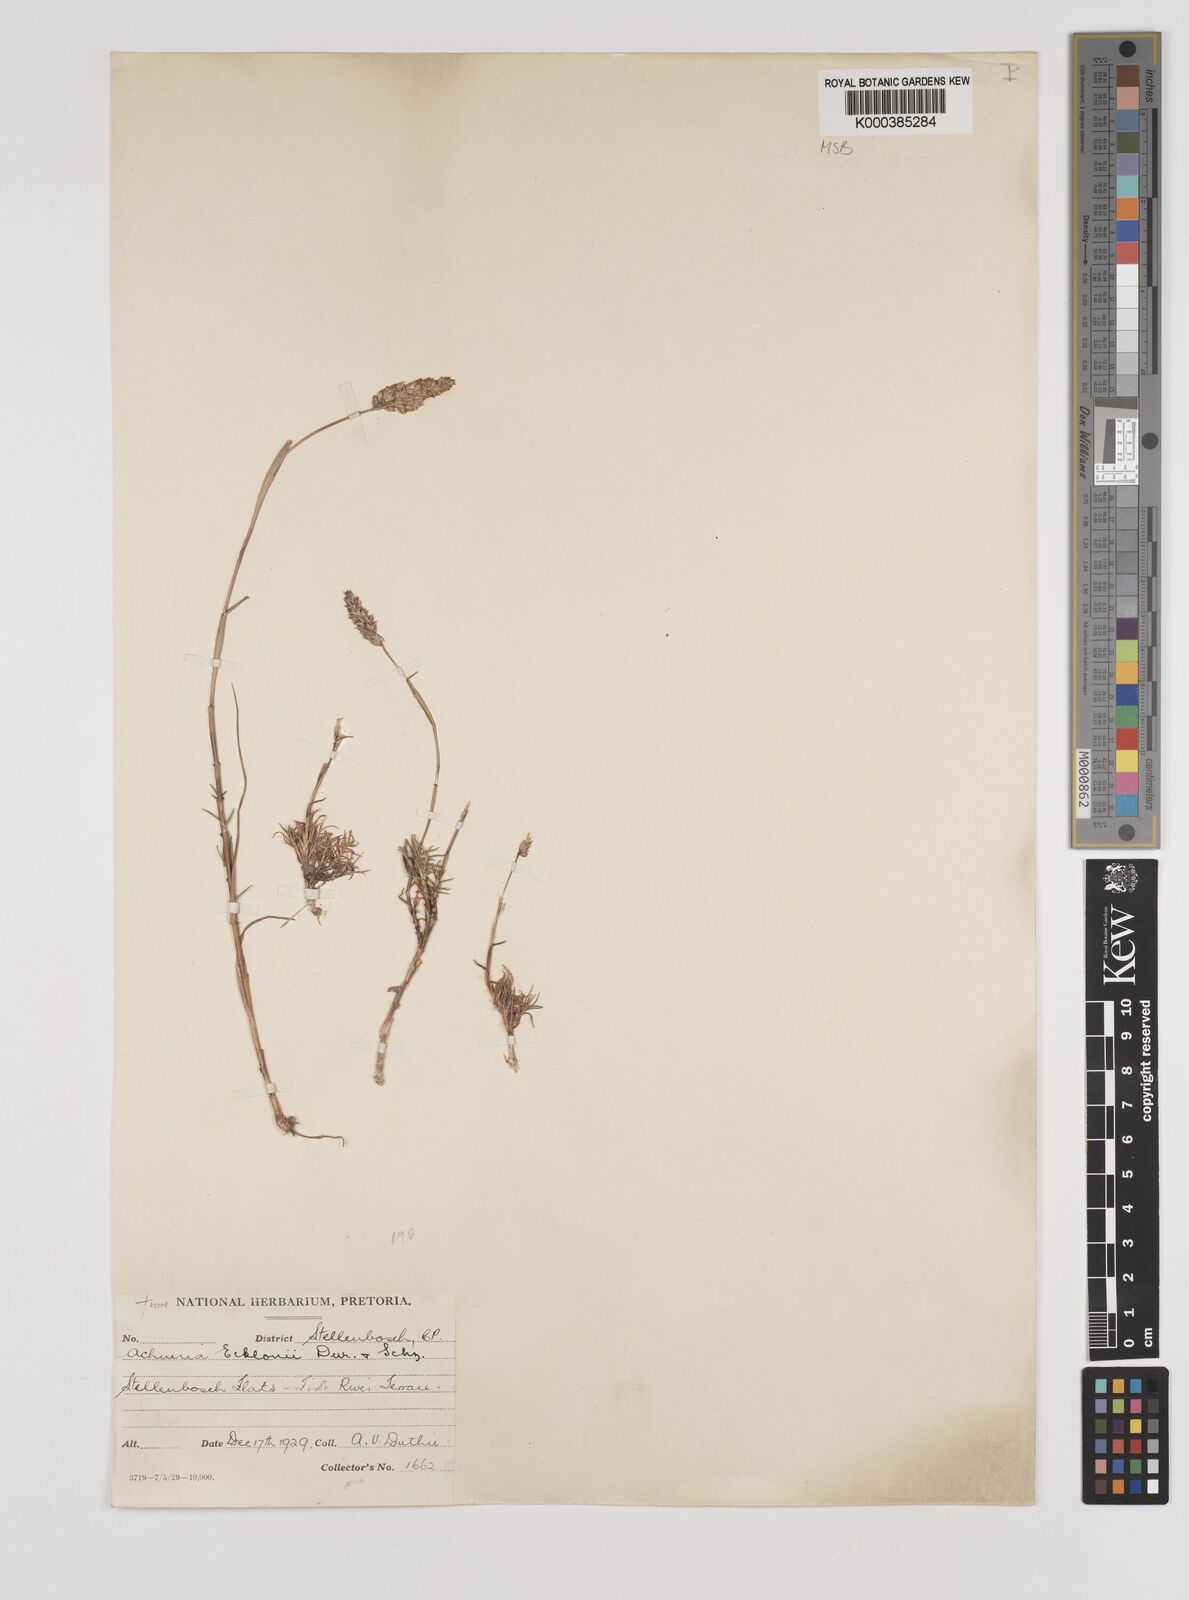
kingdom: Plantae
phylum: Tracheophyta
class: Liliopsida
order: Poales
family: Poaceae
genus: Pentameris
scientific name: Pentameris ecklonii
